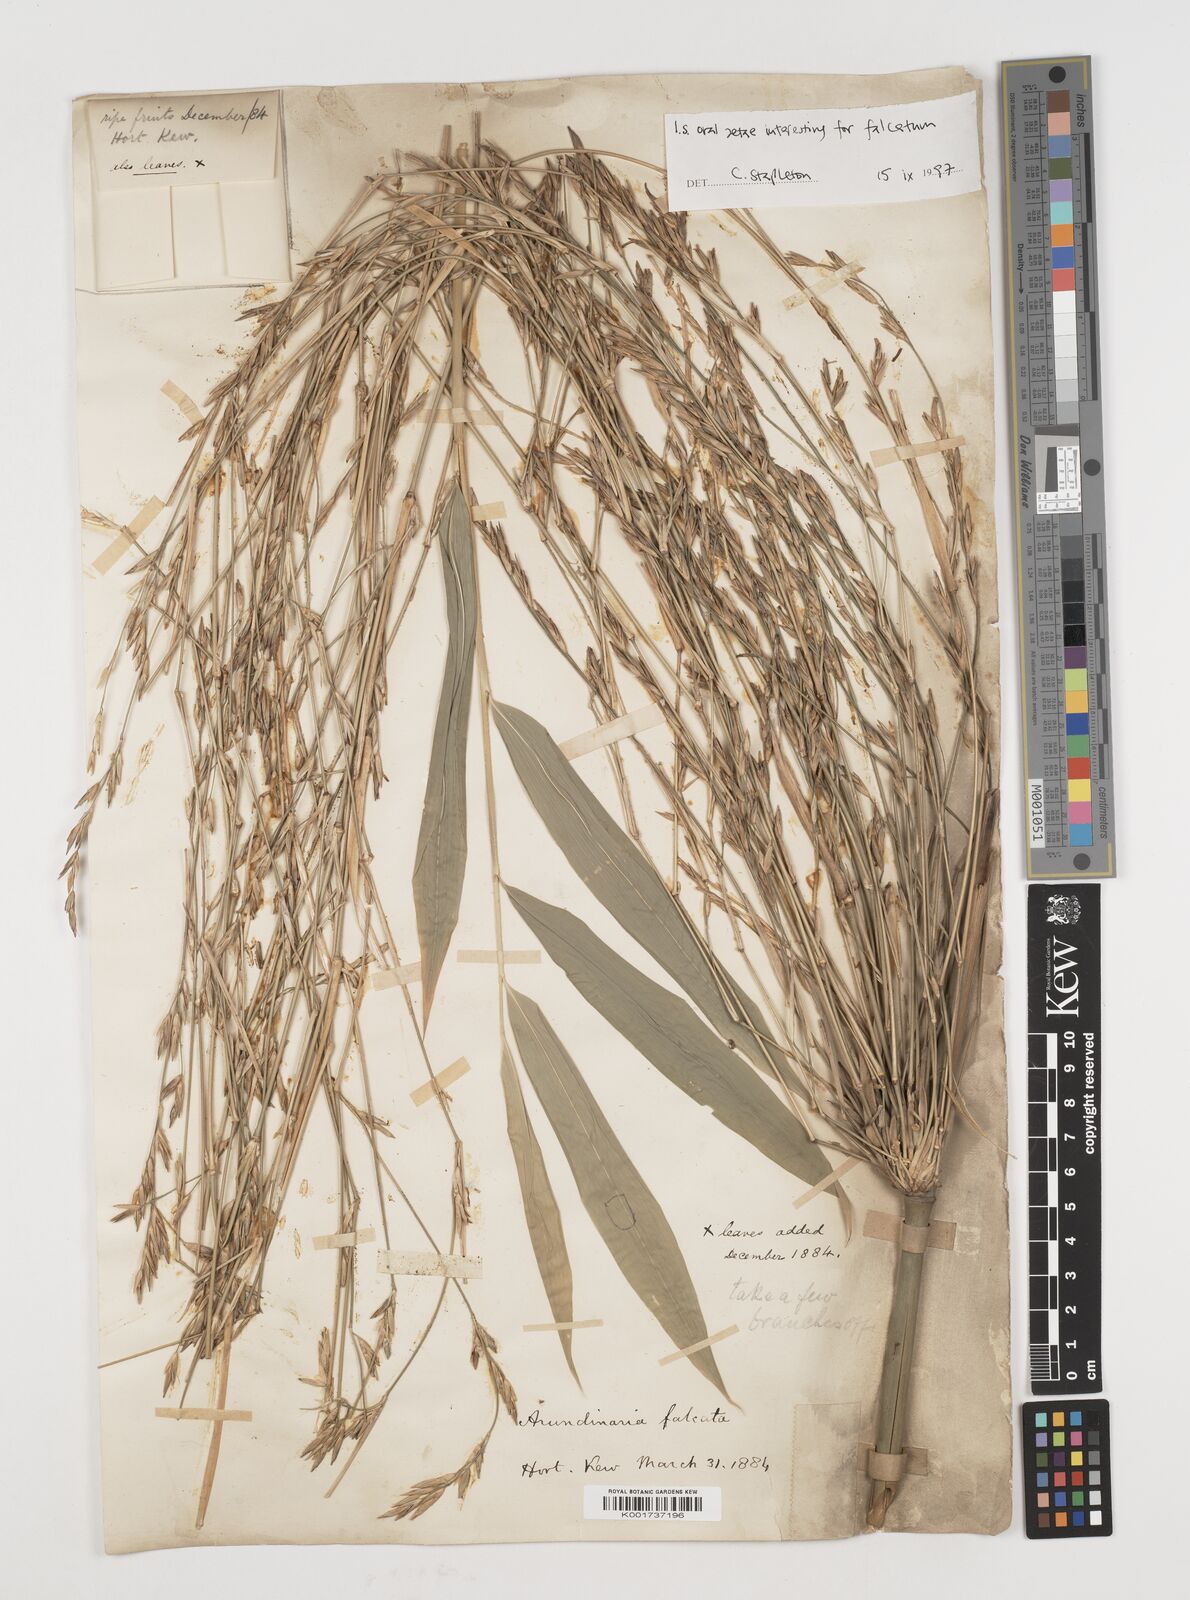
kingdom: Plantae
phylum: Tracheophyta
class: Liliopsida
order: Poales
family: Poaceae
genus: Drepanostachyum
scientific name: Drepanostachyum falcatum
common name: Himalayan bamboo
